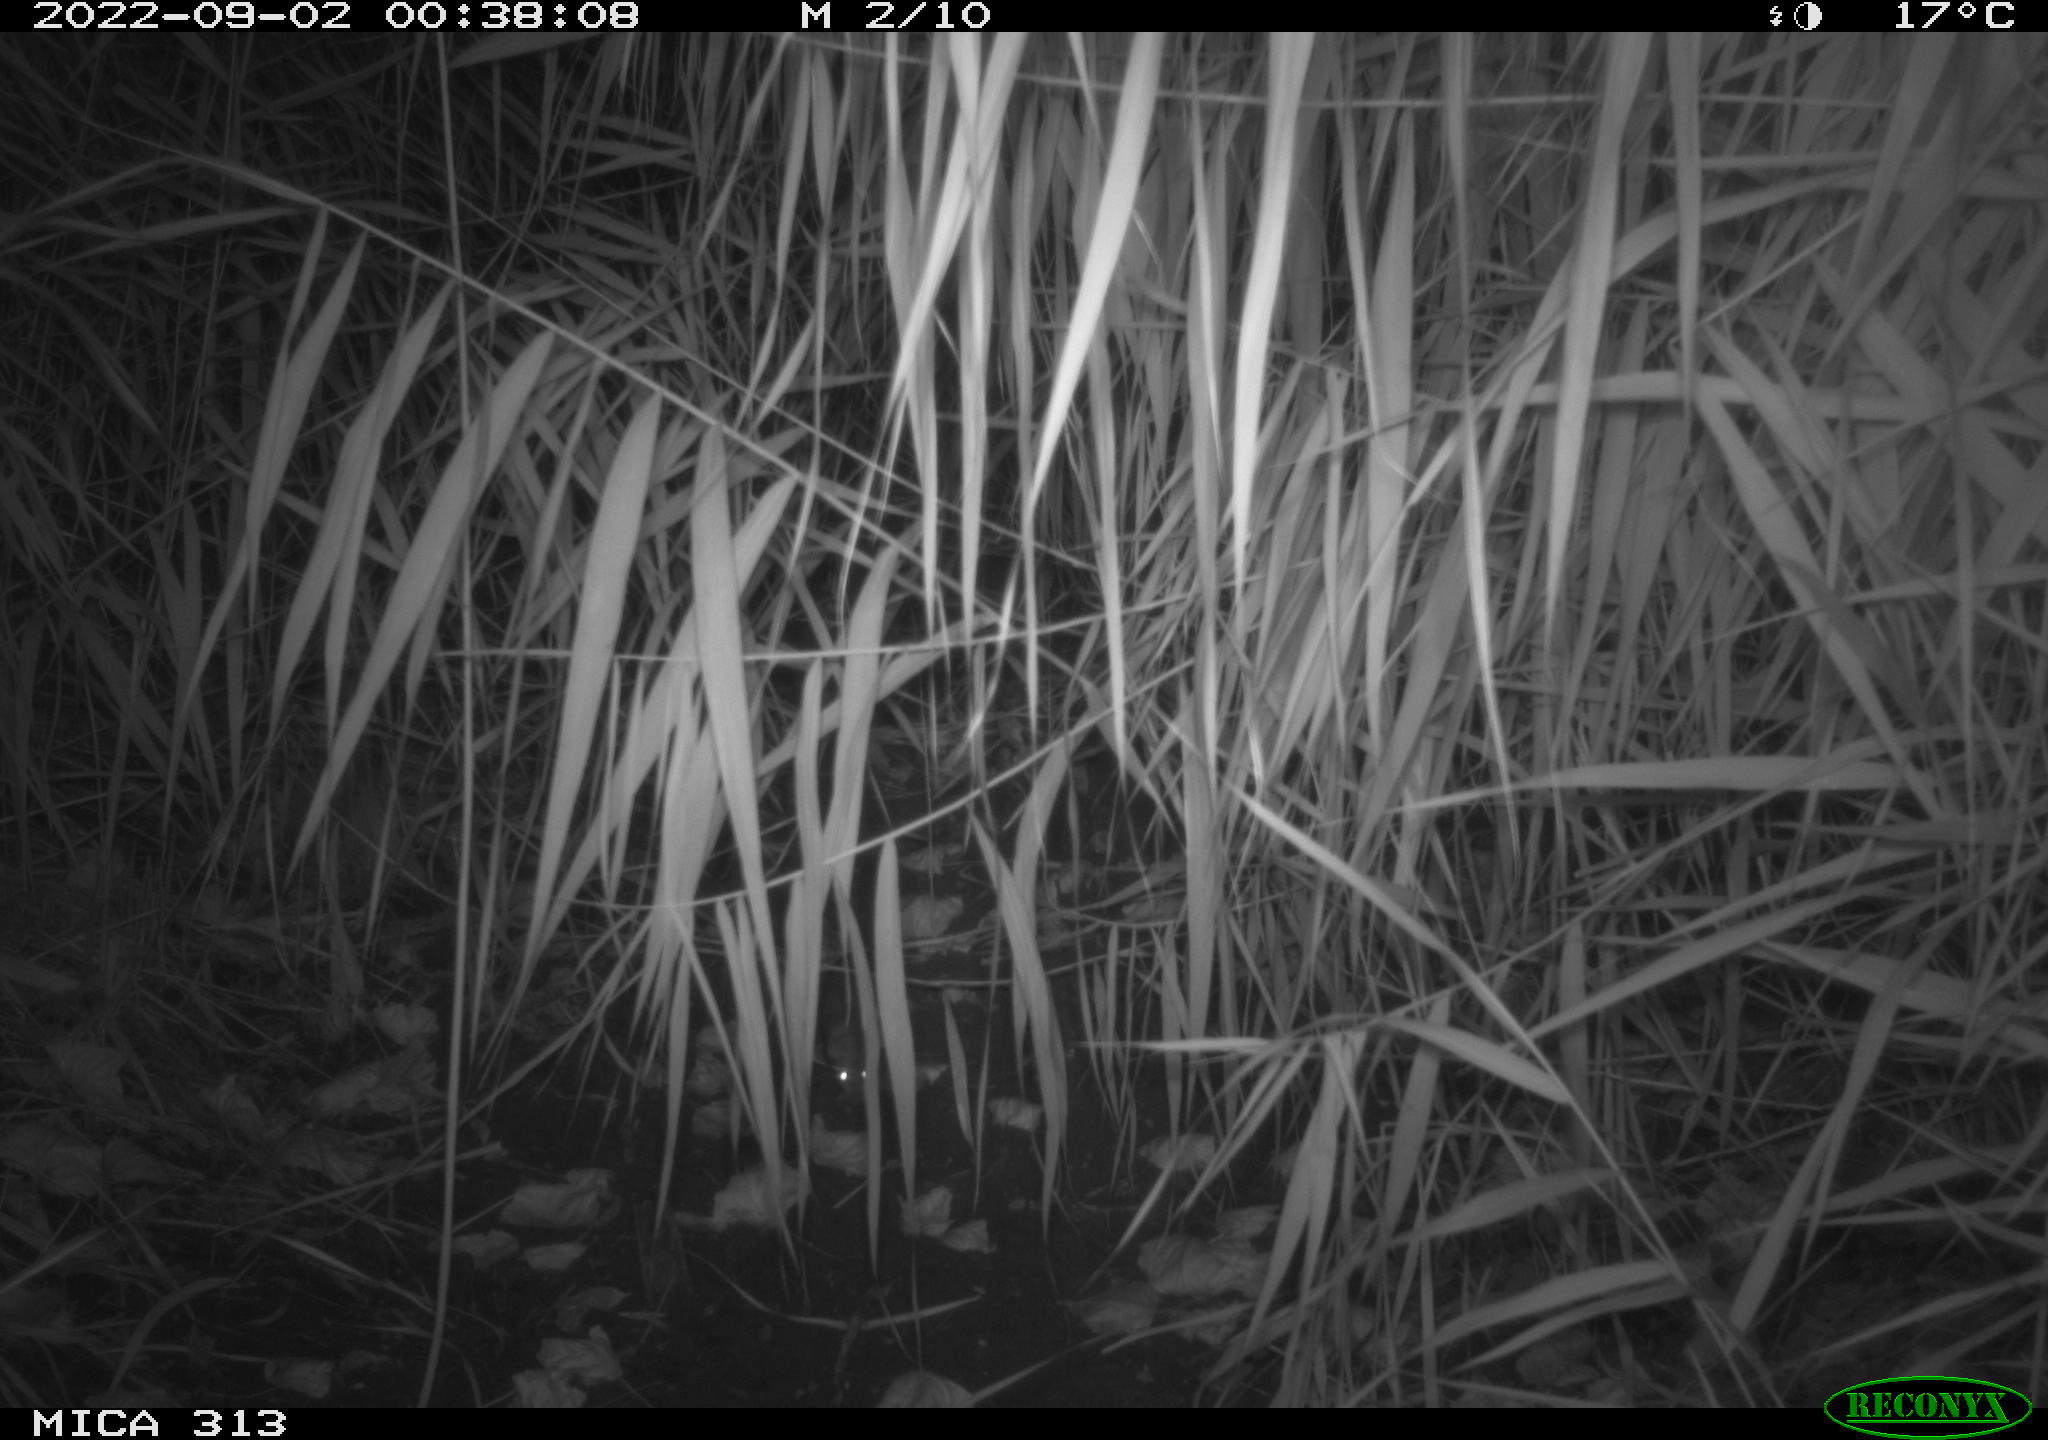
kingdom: Animalia
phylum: Chordata
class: Mammalia
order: Rodentia
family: Muridae
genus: Rattus
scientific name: Rattus norvegicus
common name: Brown rat
